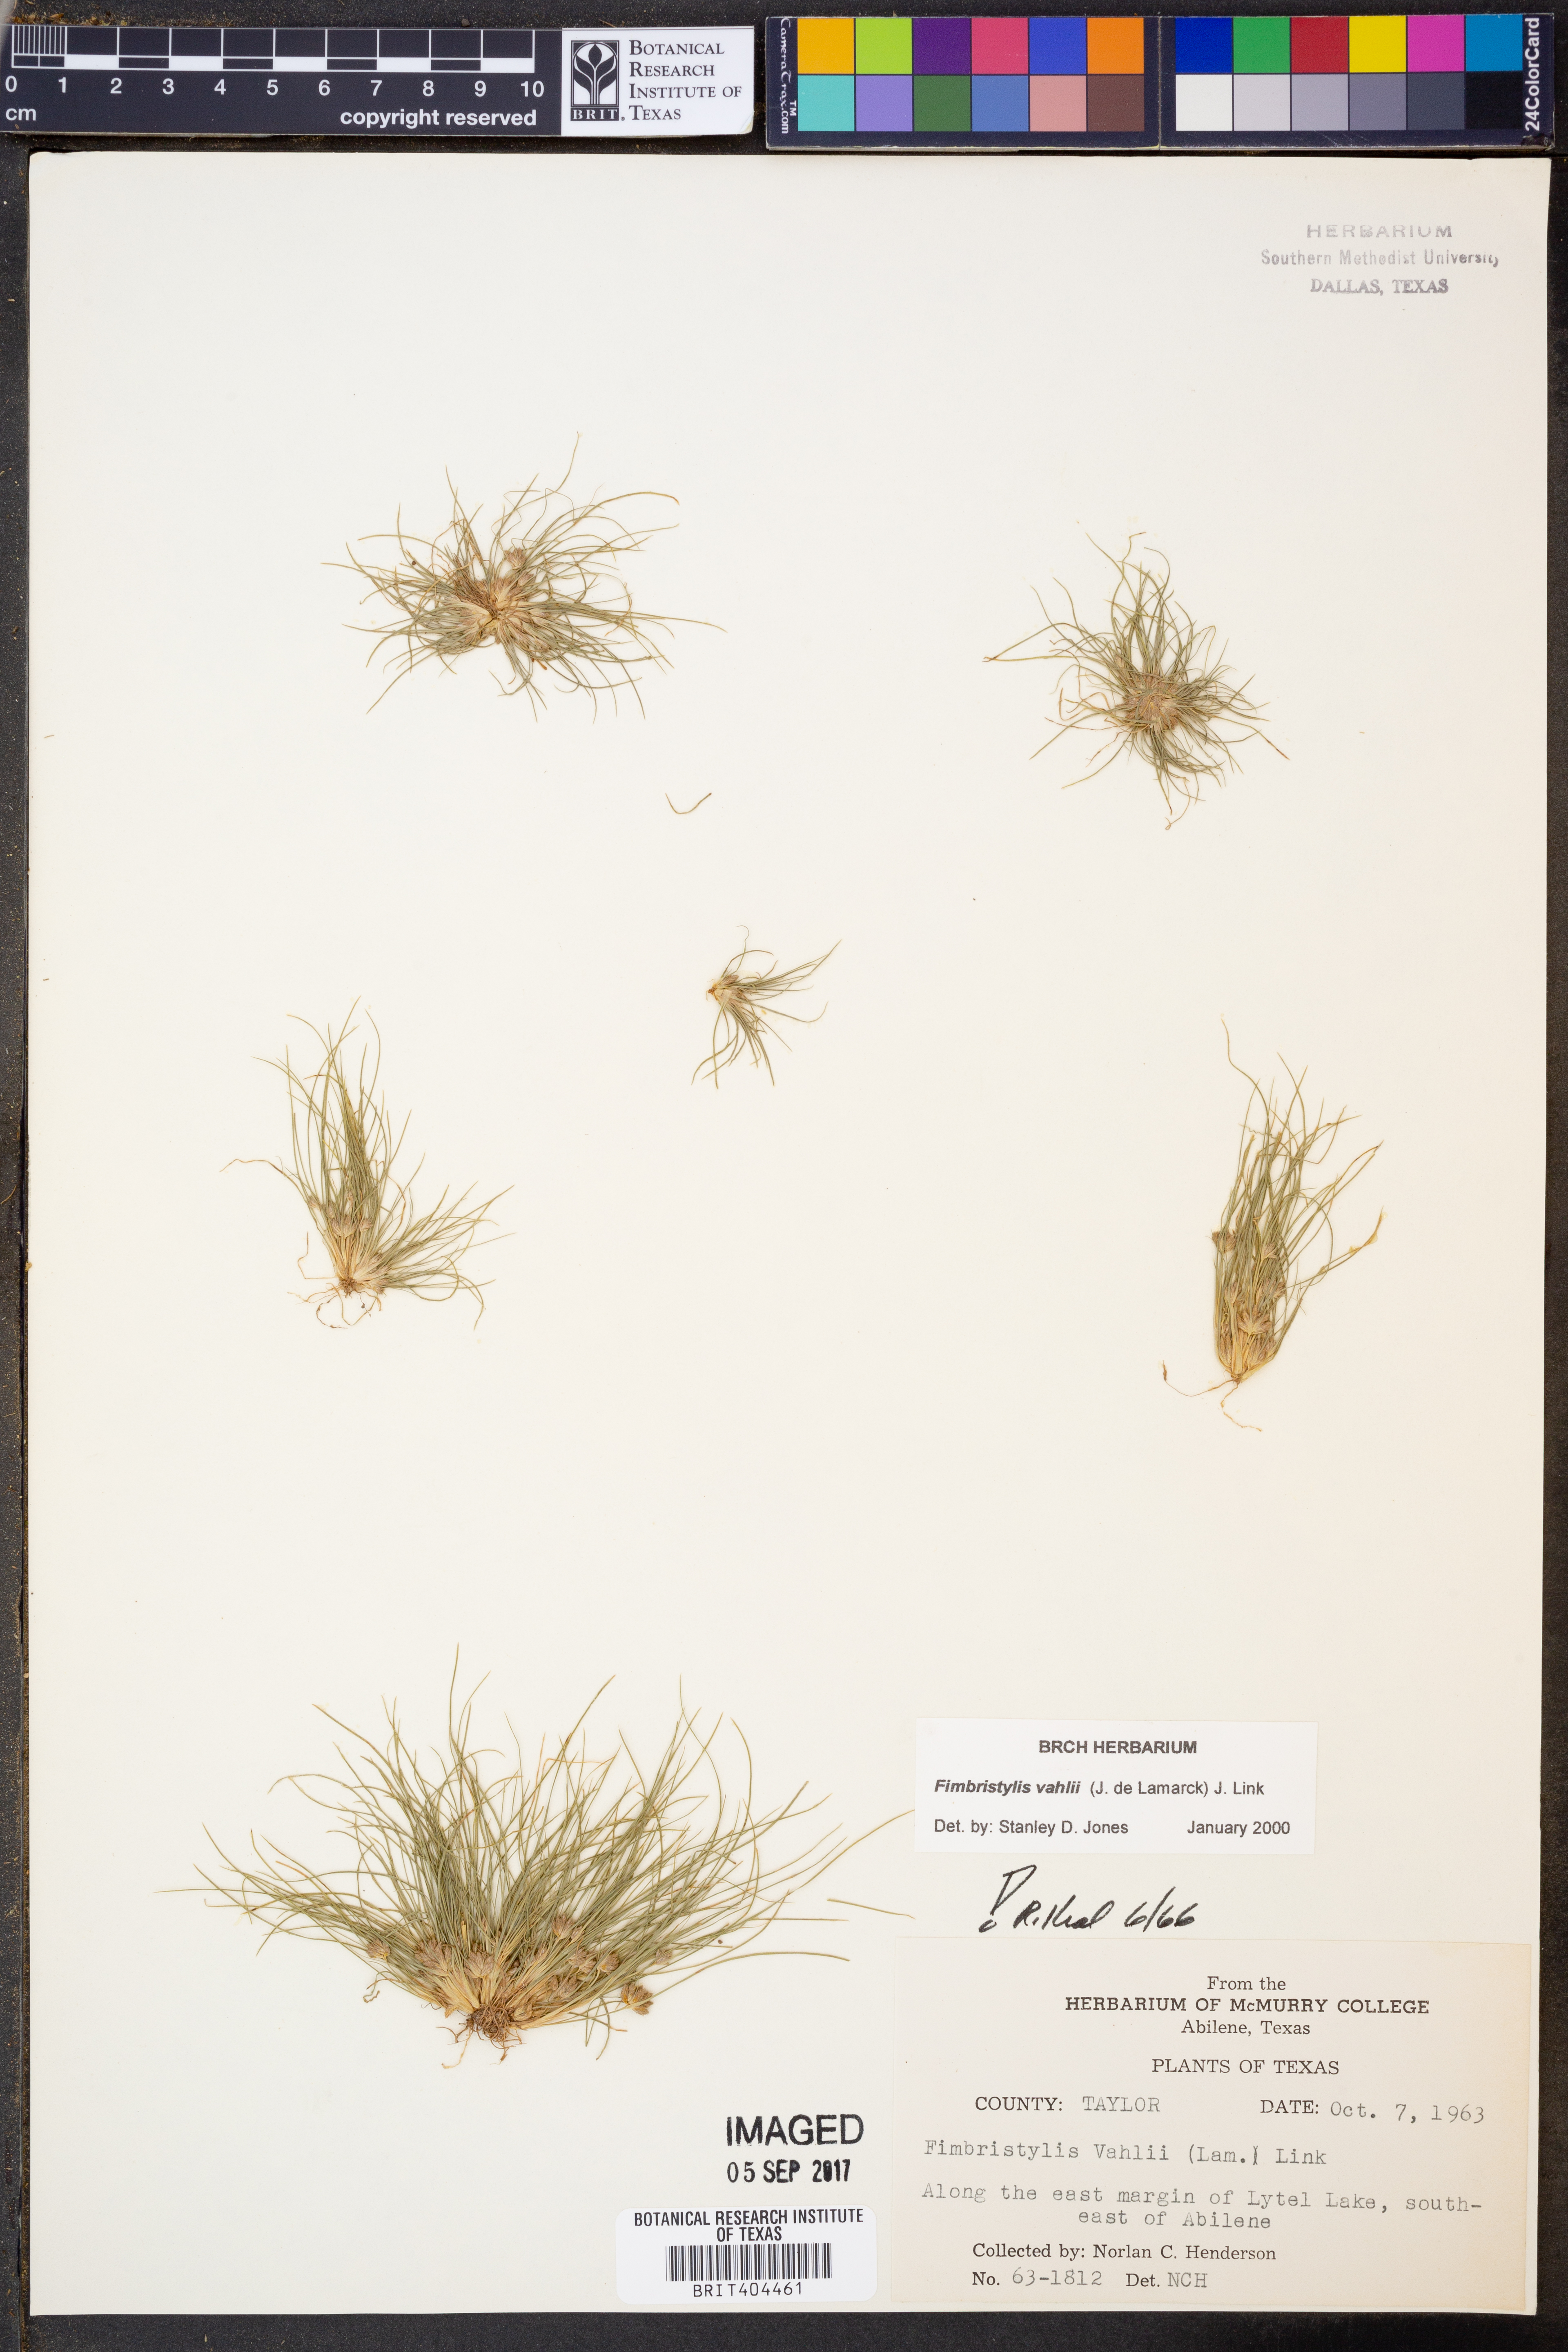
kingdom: Plantae
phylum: Tracheophyta
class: Liliopsida
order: Poales
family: Cyperaceae
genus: Fimbristylis
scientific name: Fimbristylis vahlii
